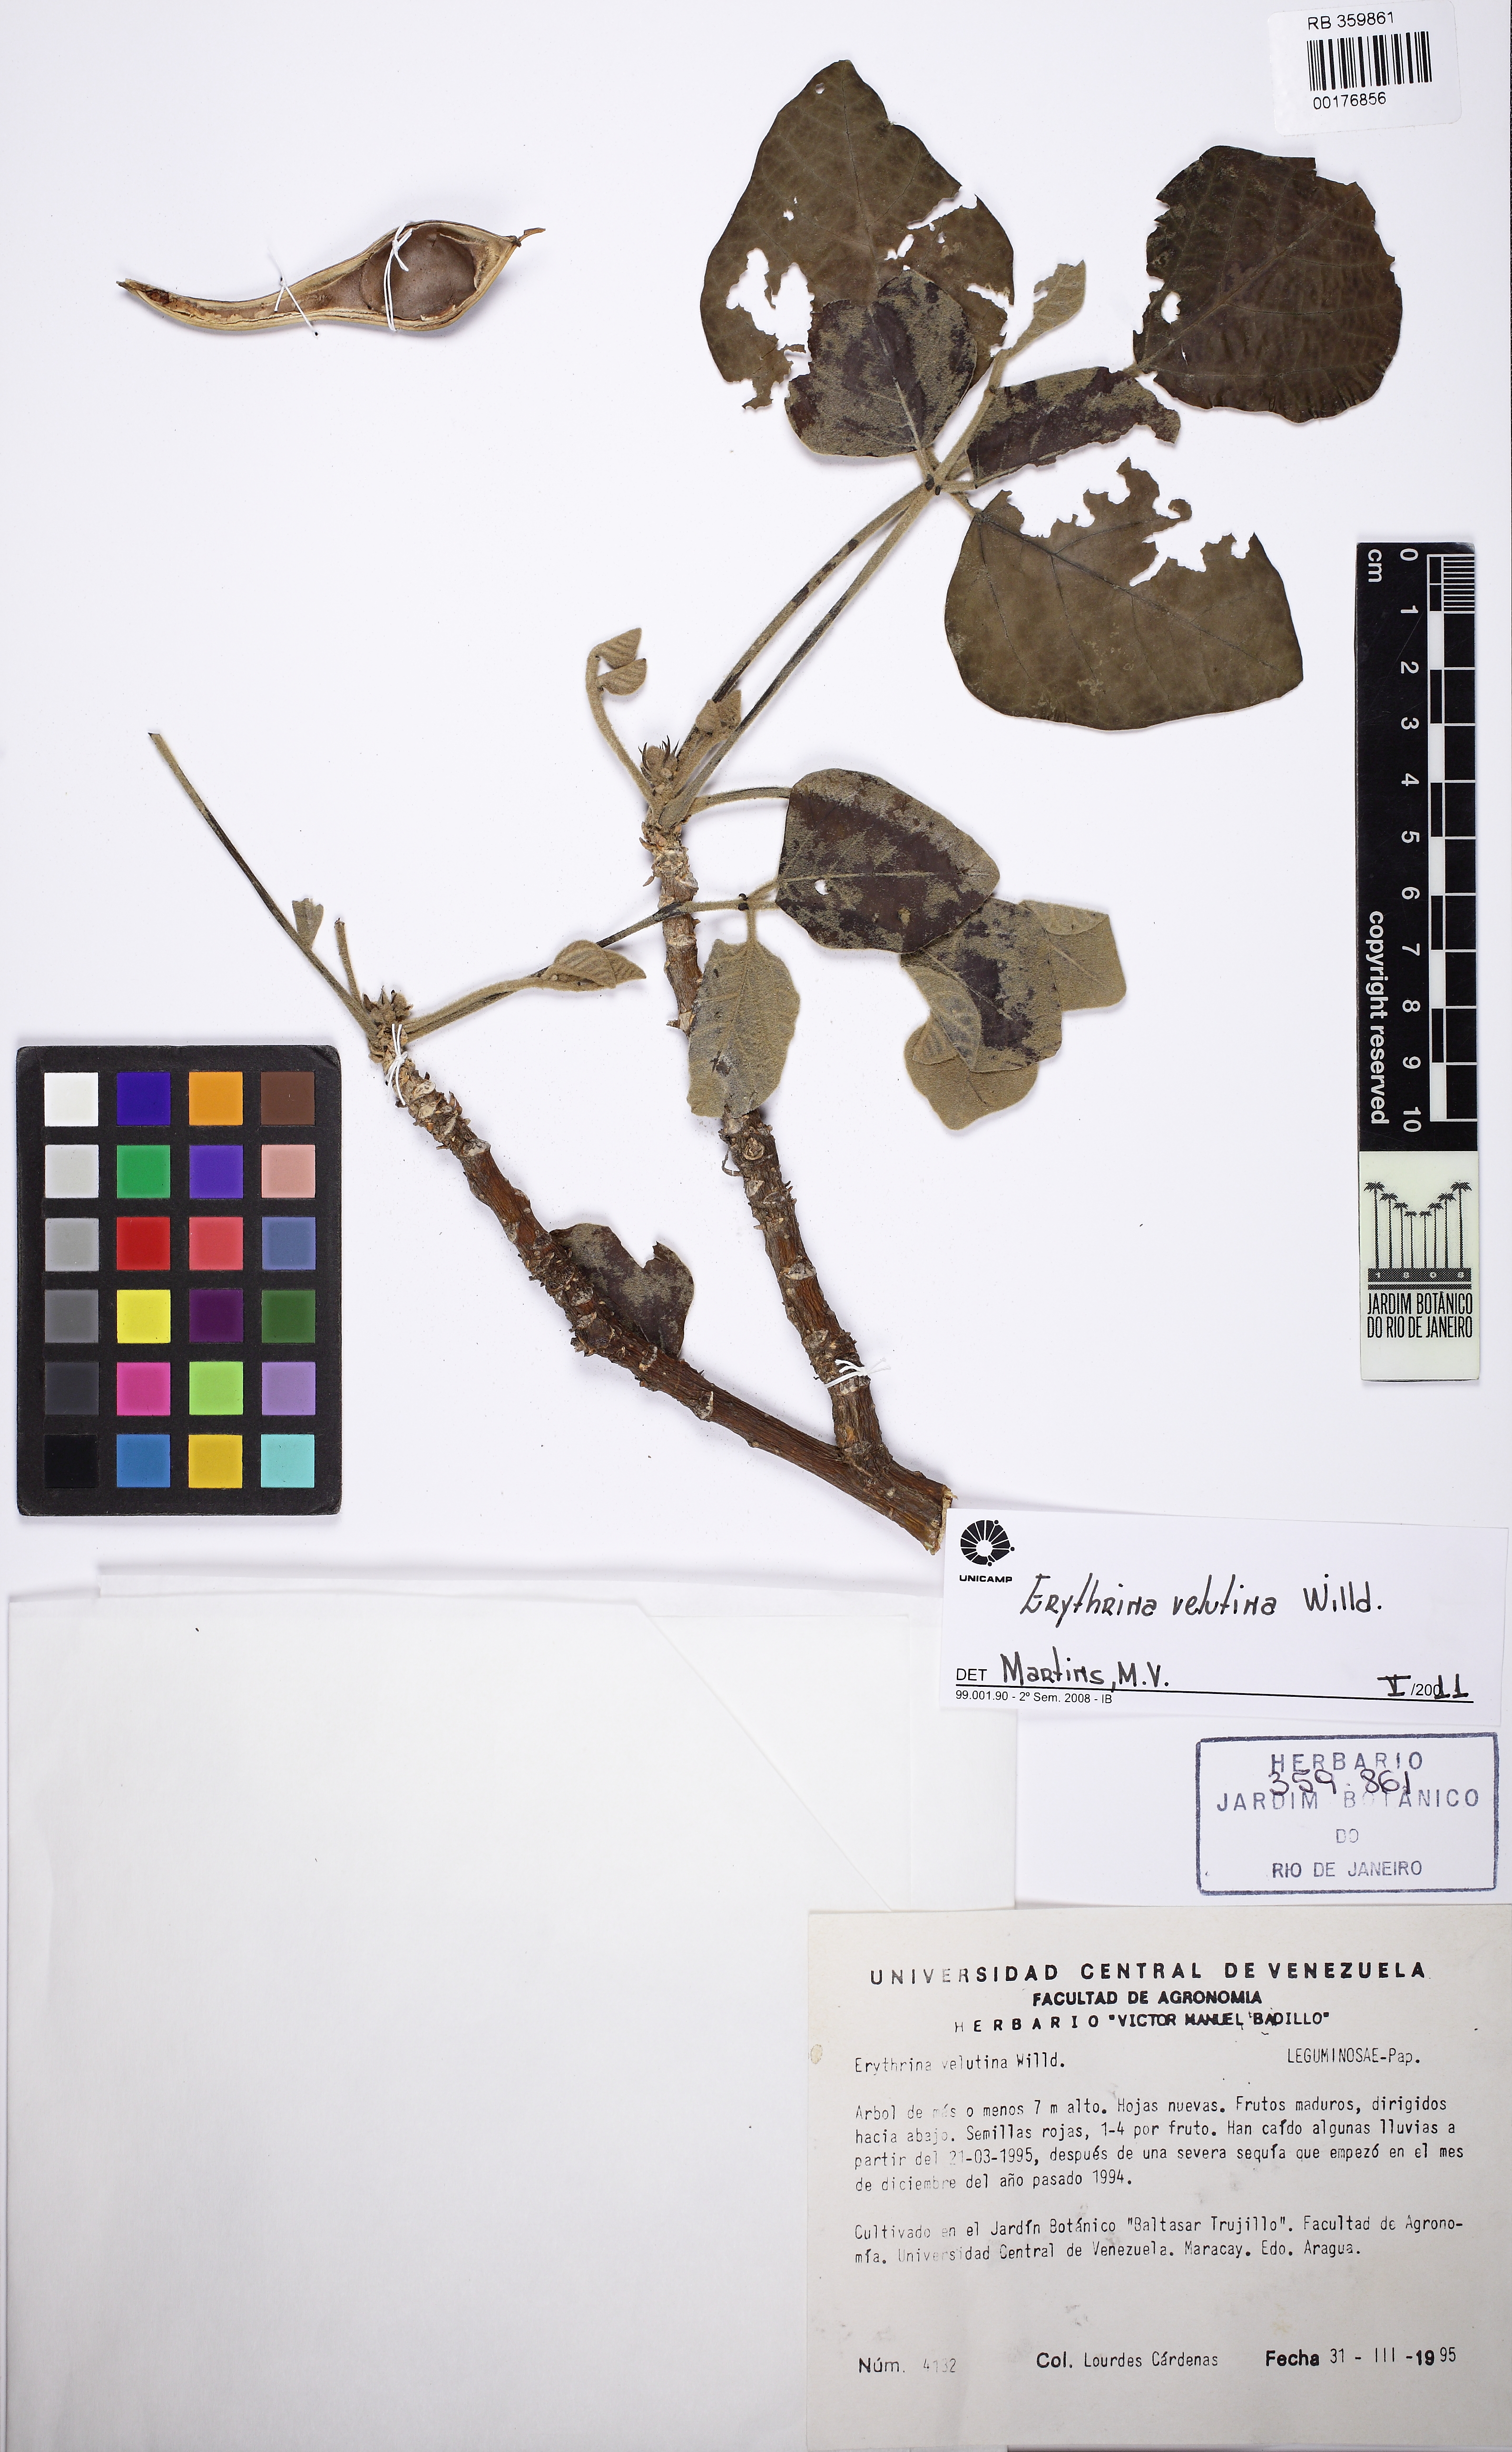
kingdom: Plantae
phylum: Tracheophyta
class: Magnoliopsida
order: Fabales
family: Fabaceae
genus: Erythrina
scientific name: Erythrina velutina
